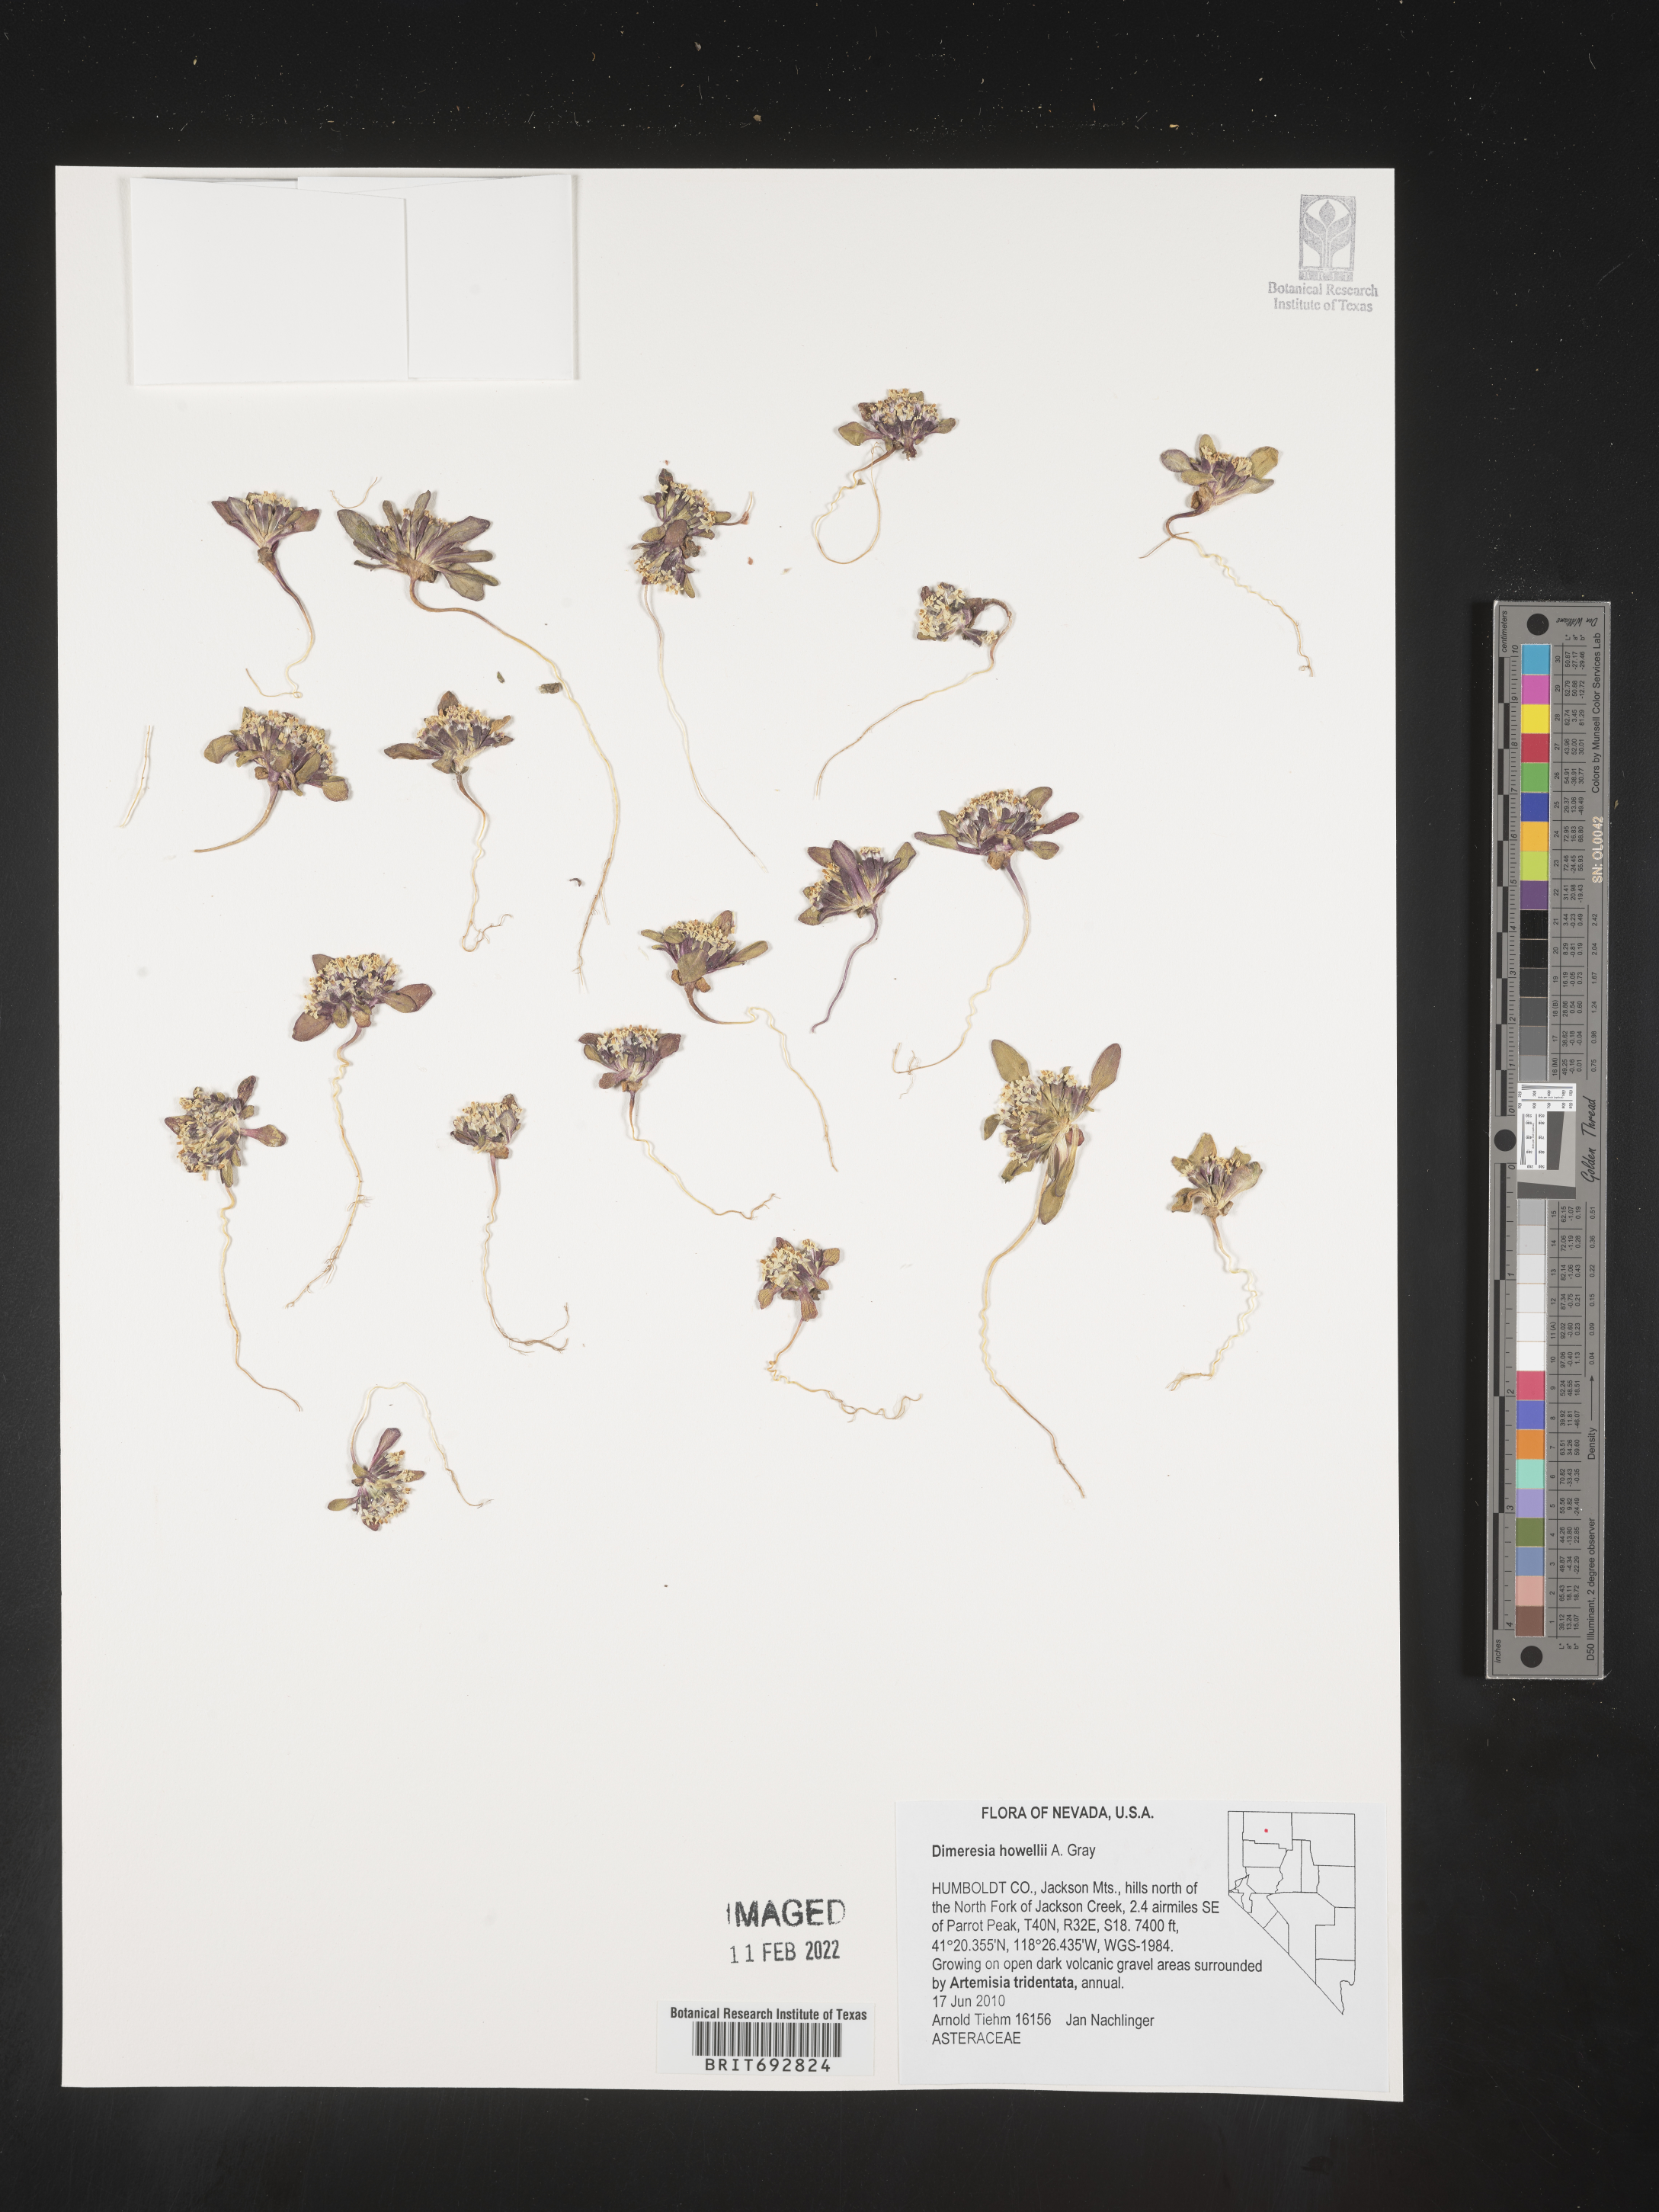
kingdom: Plantae
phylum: Tracheophyta
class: Magnoliopsida
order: Asterales
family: Asteraceae
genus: Dimeresia
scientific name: Dimeresia
